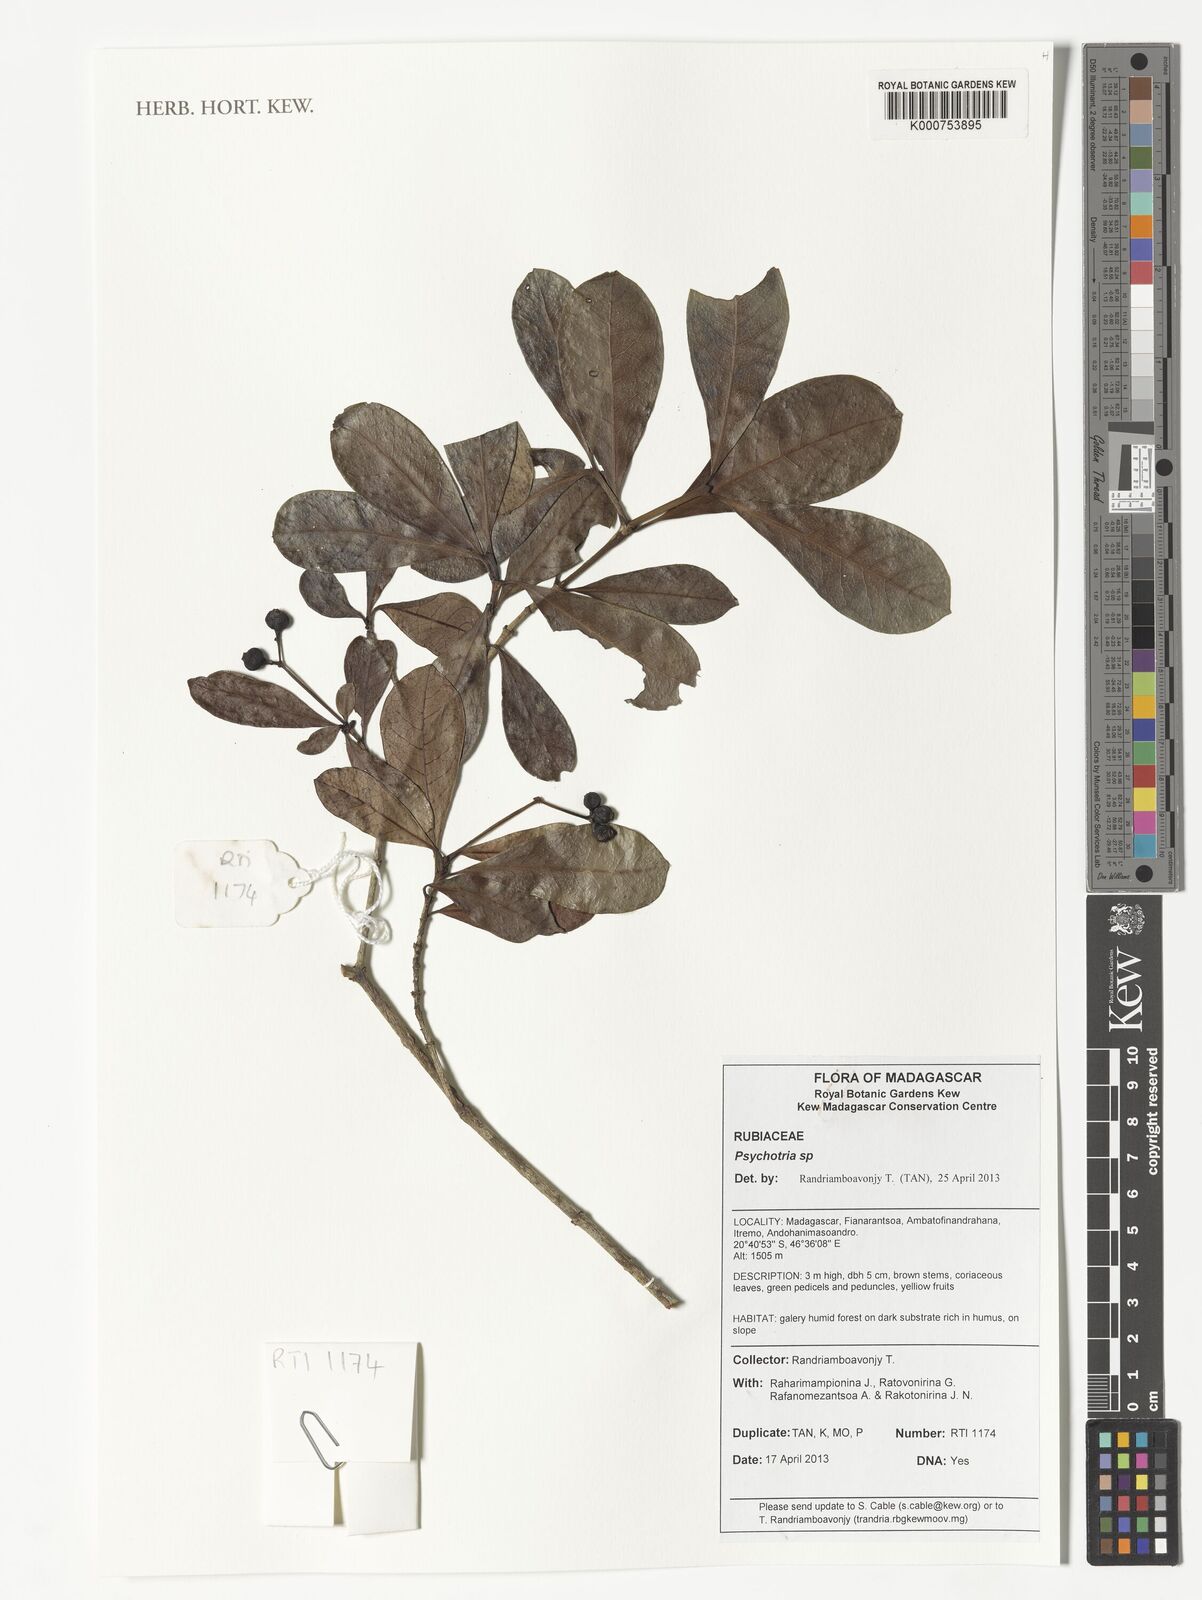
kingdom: Plantae
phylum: Tracheophyta
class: Magnoliopsida
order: Gentianales
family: Rubiaceae
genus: Psychotria
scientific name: Psychotria
